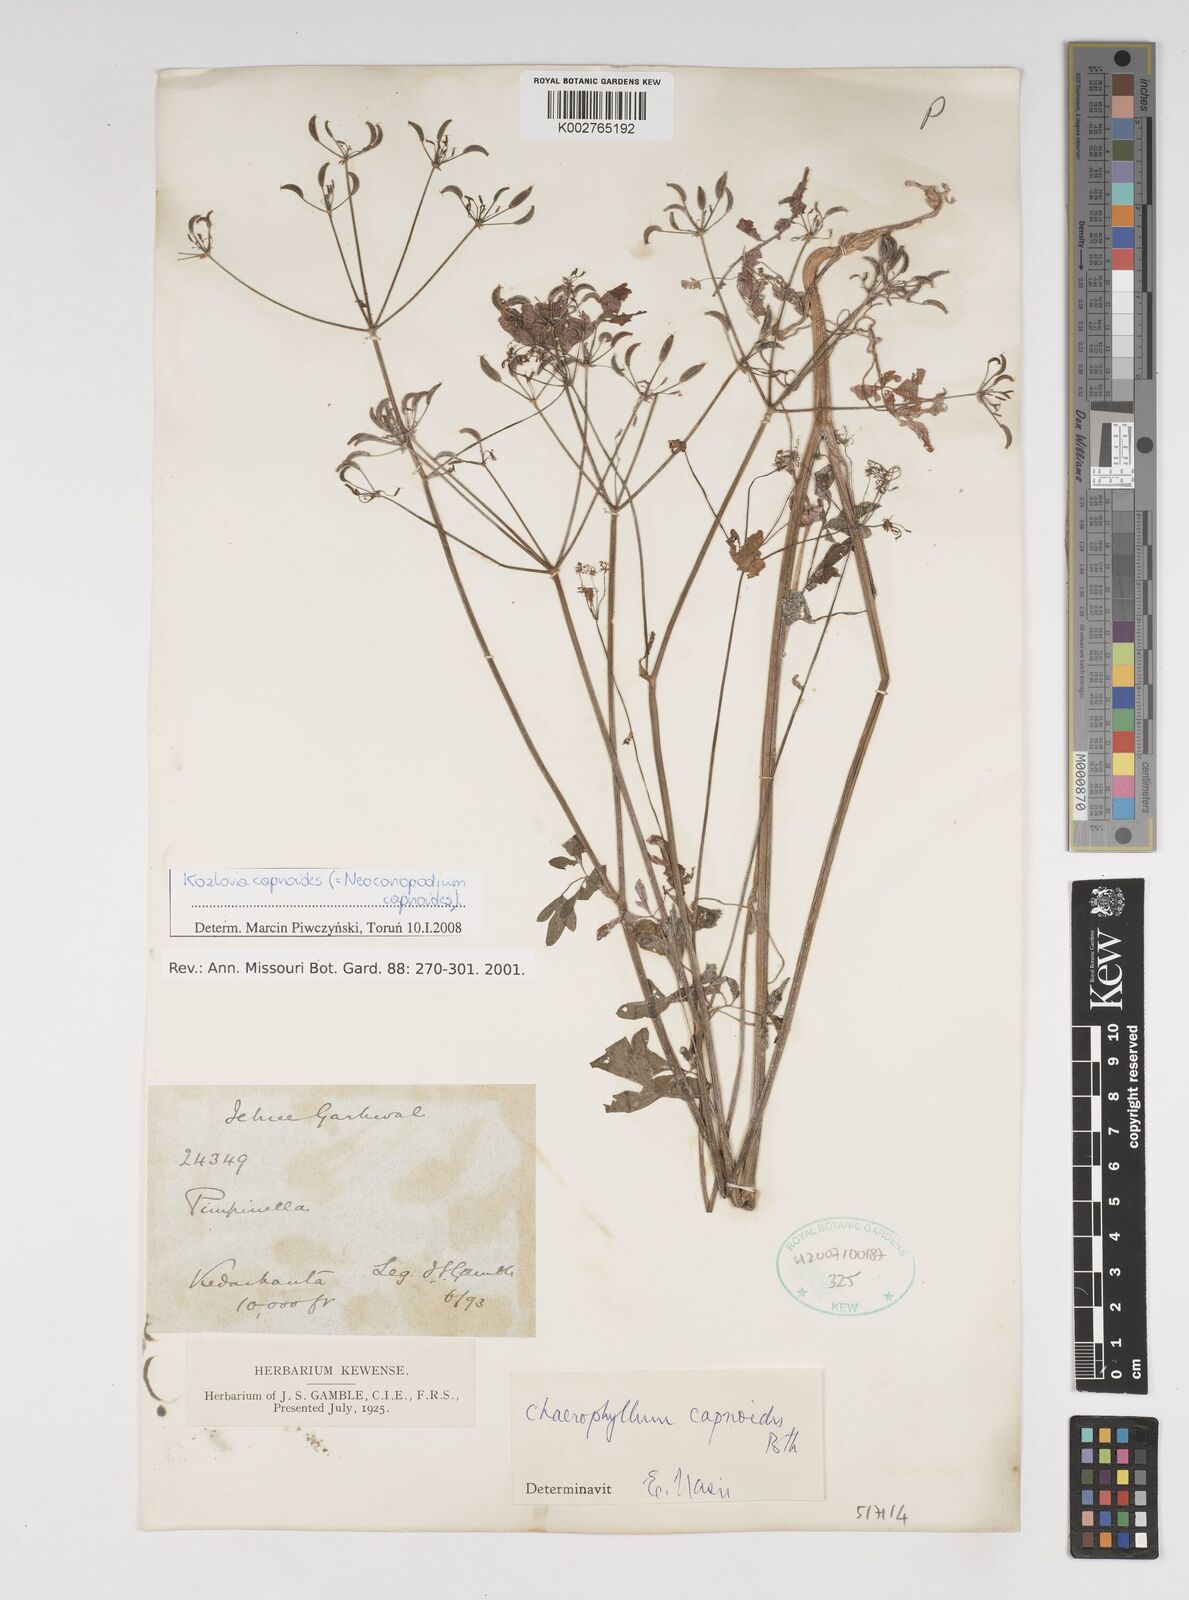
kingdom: Plantae
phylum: Tracheophyta
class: Magnoliopsida
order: Apiales
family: Apiaceae
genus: Kozlovia
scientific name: Kozlovia capnoides
